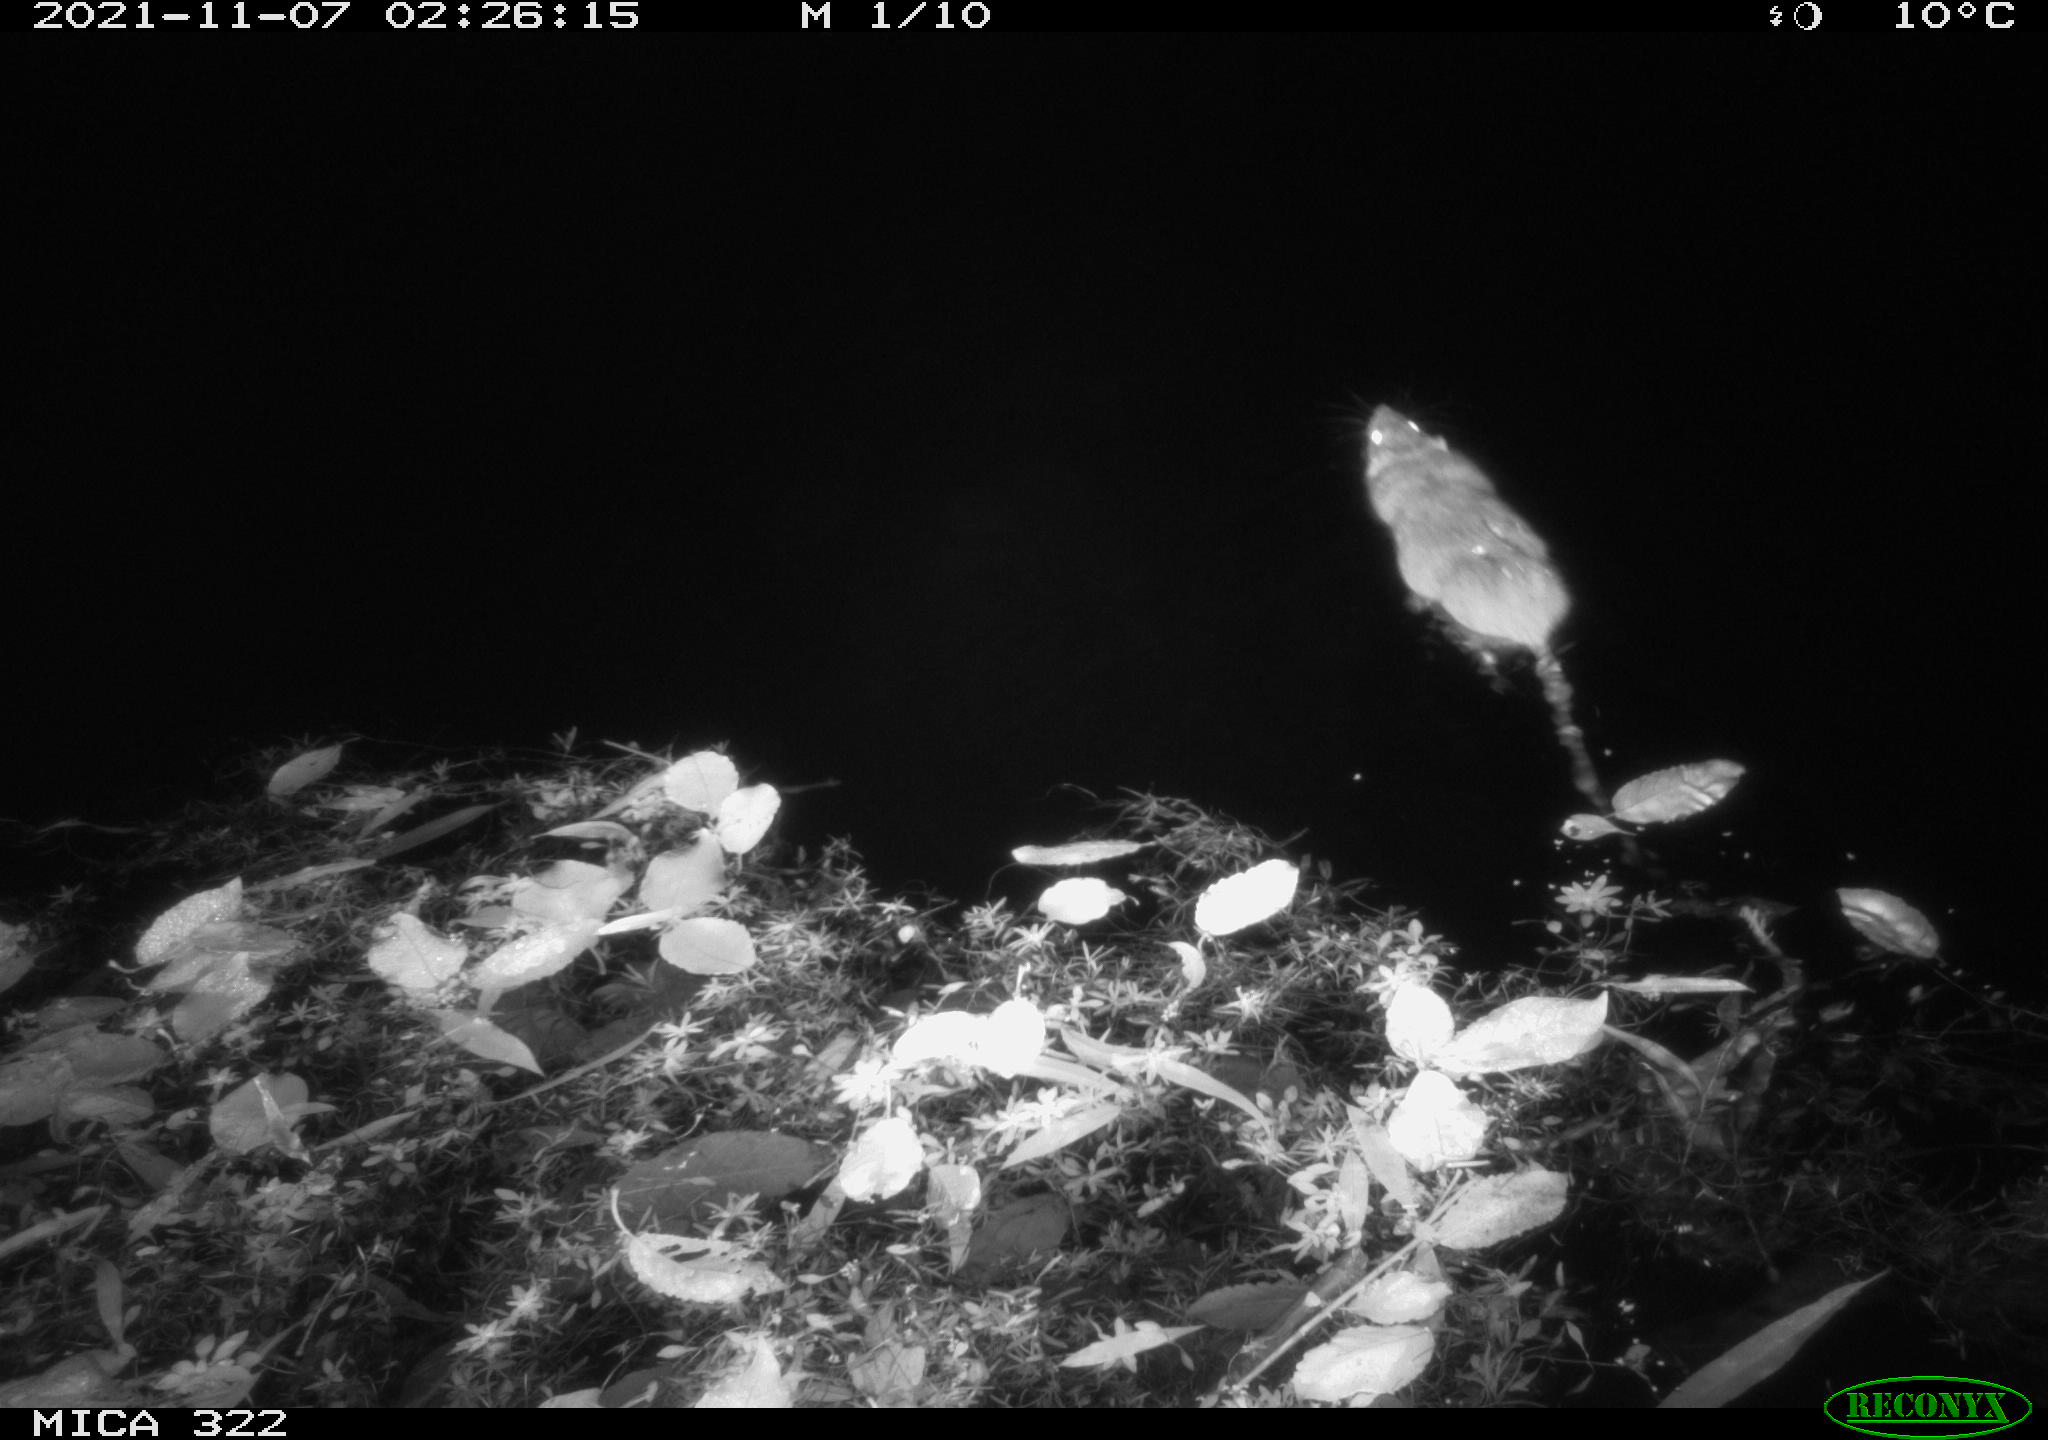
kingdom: Animalia
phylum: Chordata
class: Mammalia
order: Rodentia
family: Muridae
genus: Rattus
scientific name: Rattus norvegicus
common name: Brown rat
